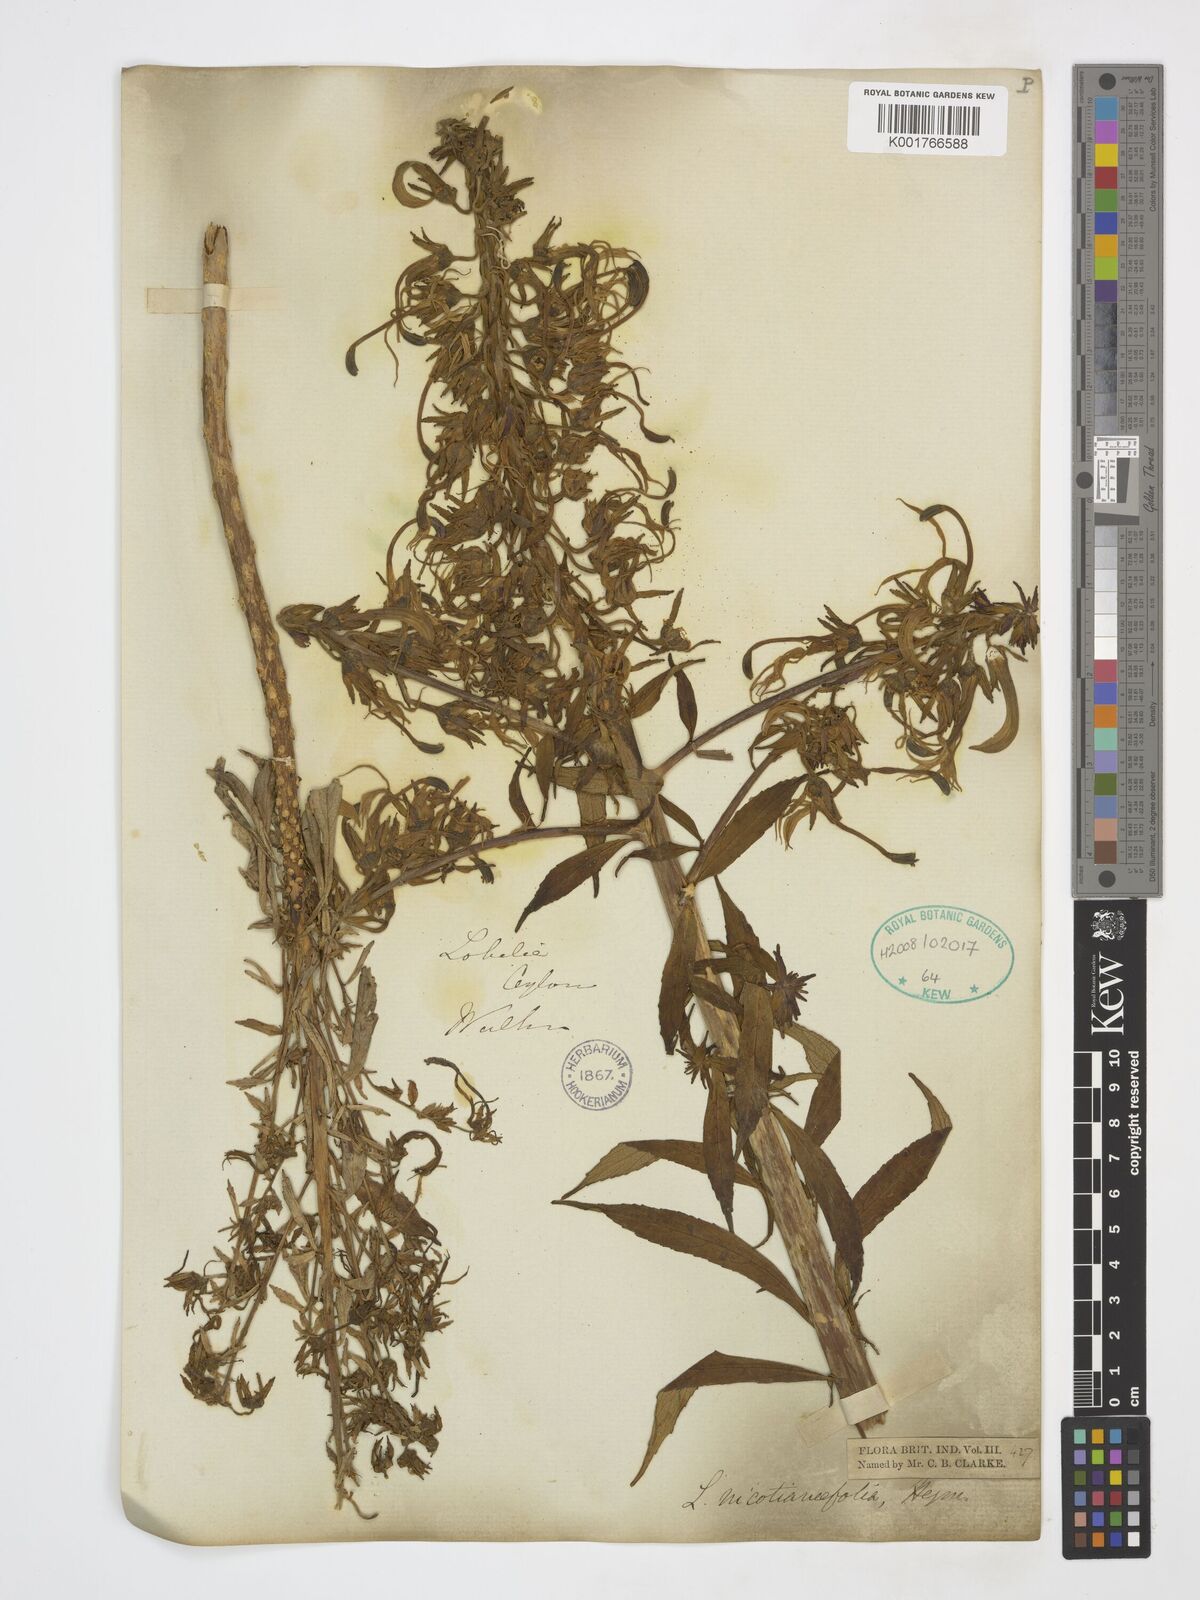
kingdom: Plantae
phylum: Tracheophyta
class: Magnoliopsida
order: Asterales
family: Campanulaceae
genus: Lobelia
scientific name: Lobelia nicotianifolia
